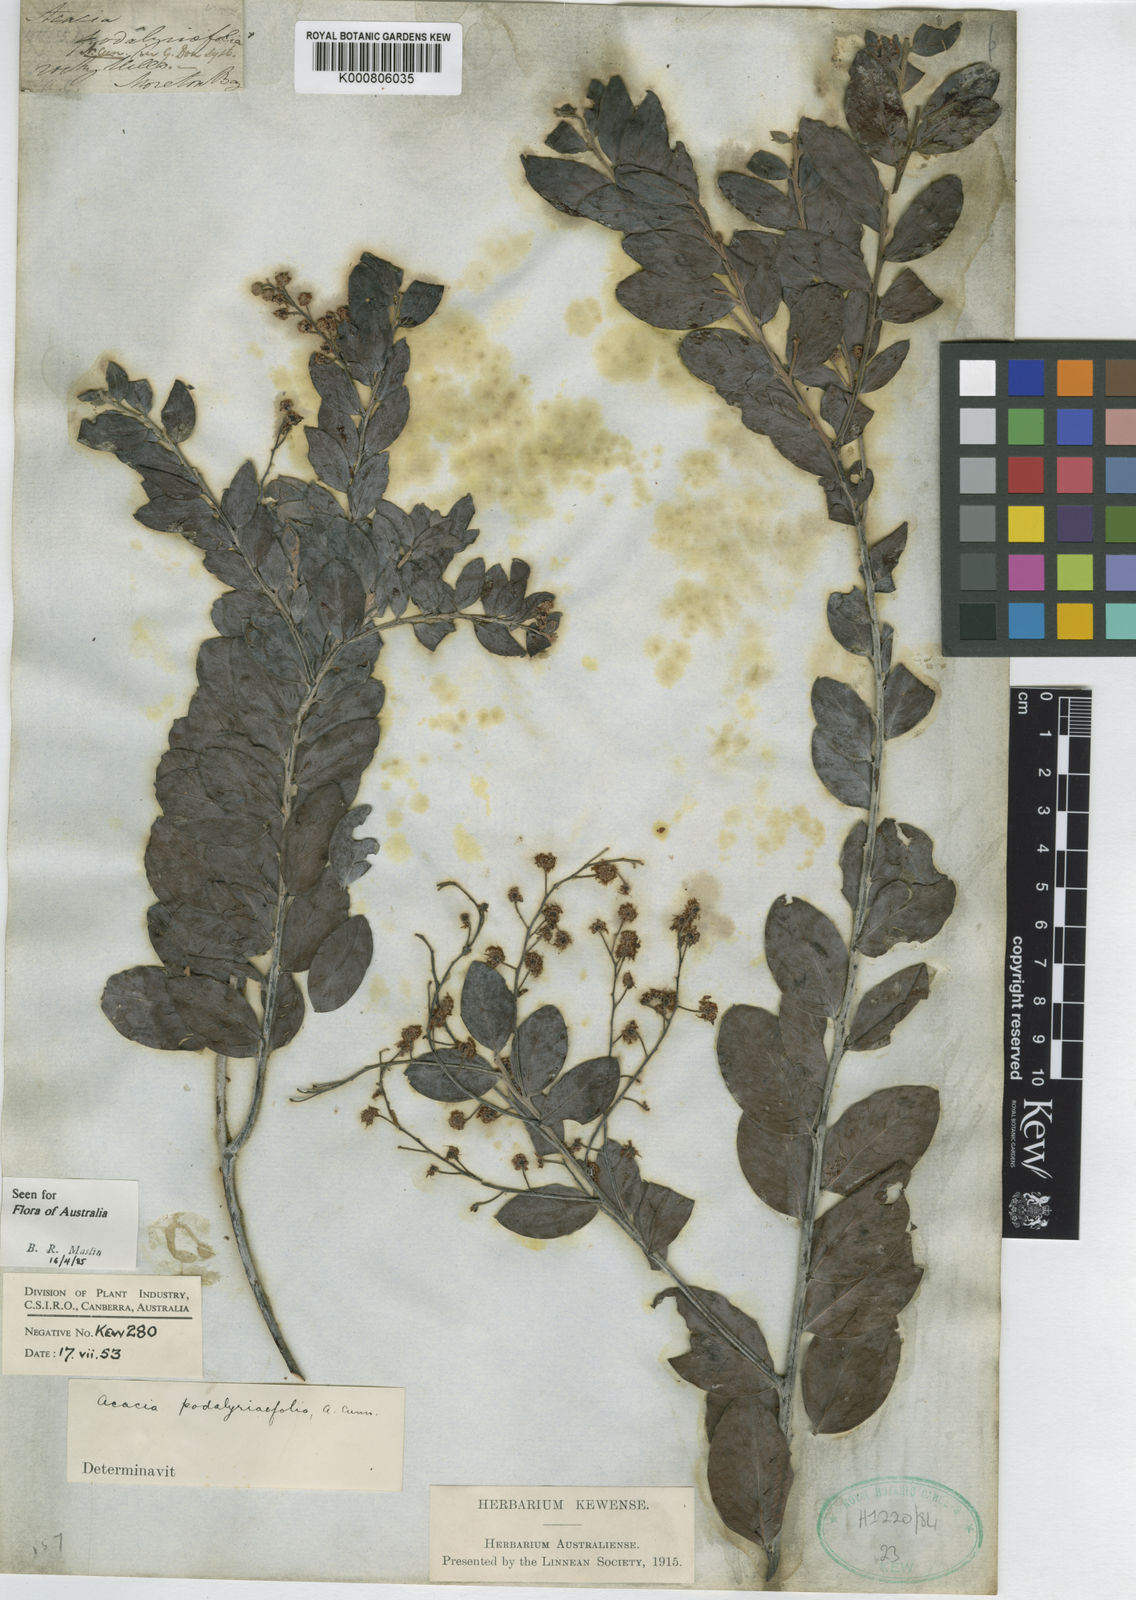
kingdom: Plantae
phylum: Tracheophyta
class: Magnoliopsida
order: Fabales
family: Fabaceae
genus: Acacia
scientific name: Acacia
